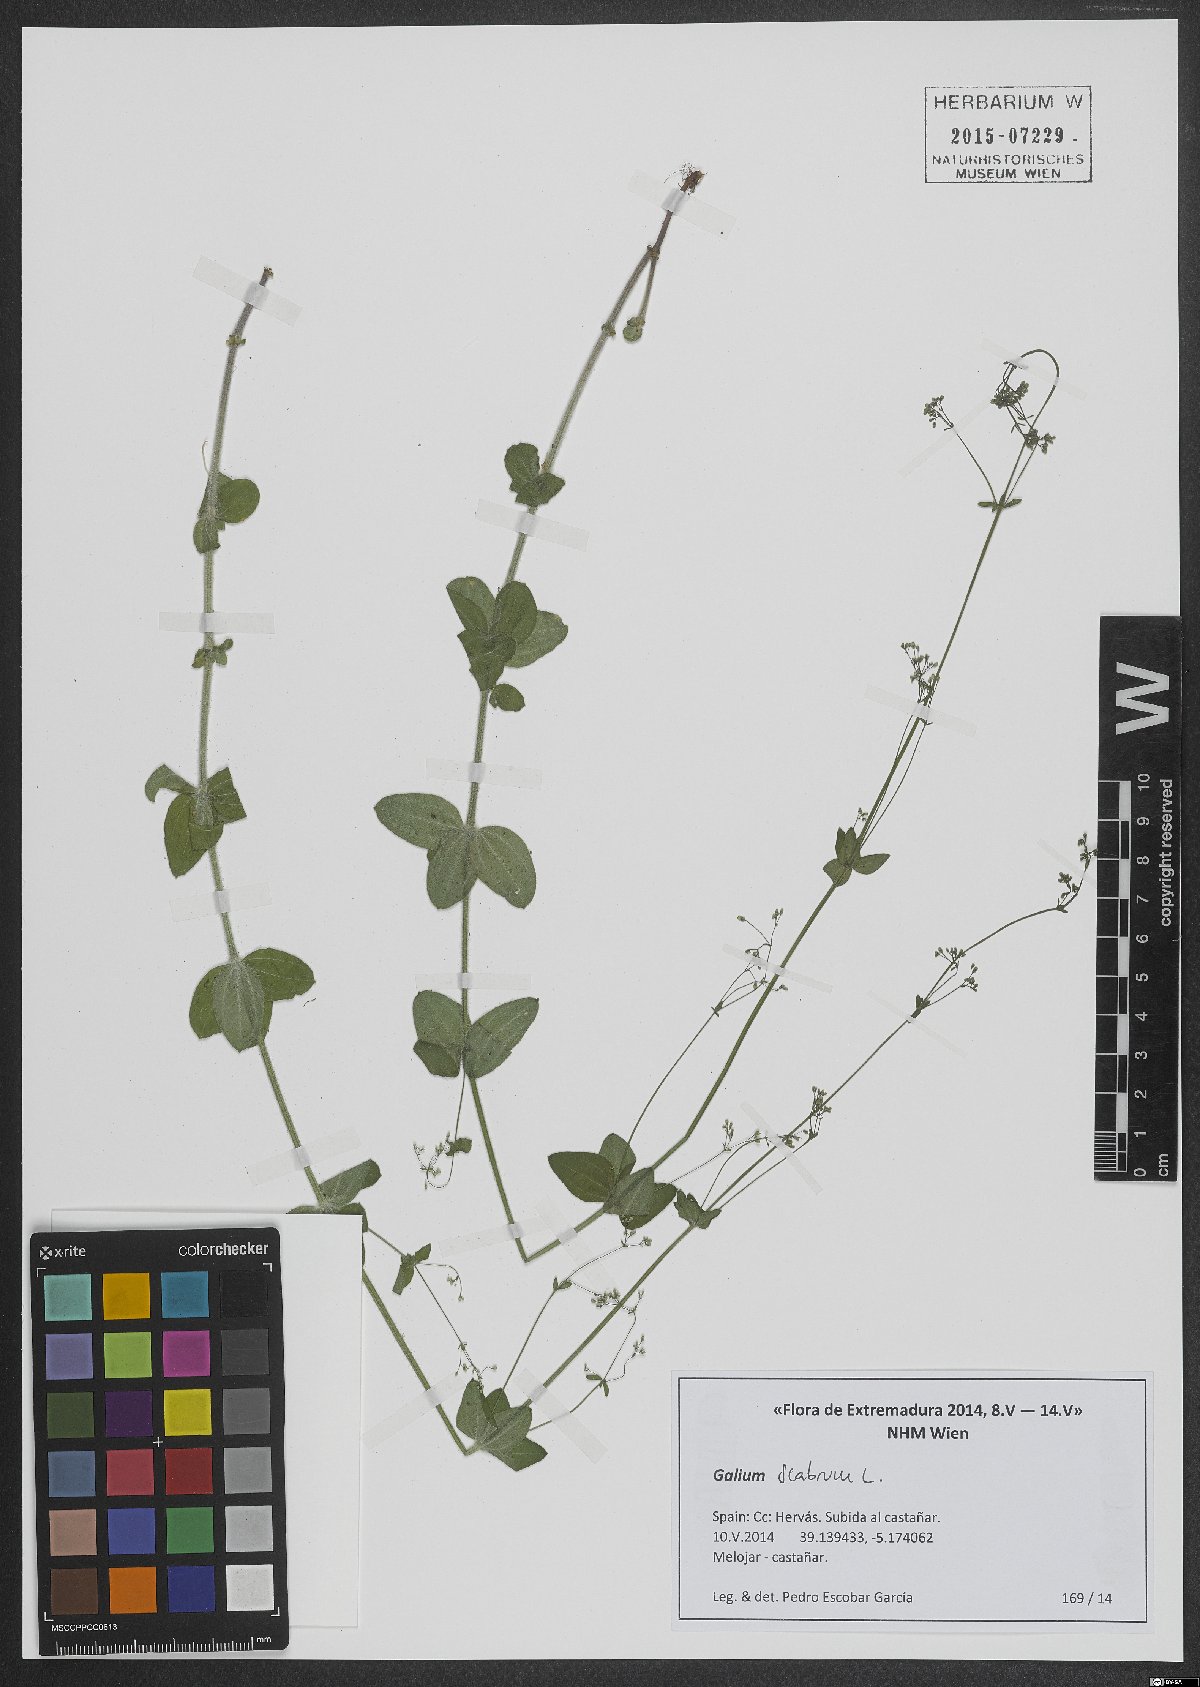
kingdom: Plantae
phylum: Tracheophyta
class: Magnoliopsida
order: Gentianales
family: Rubiaceae
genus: Galium
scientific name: Galium scabrum
